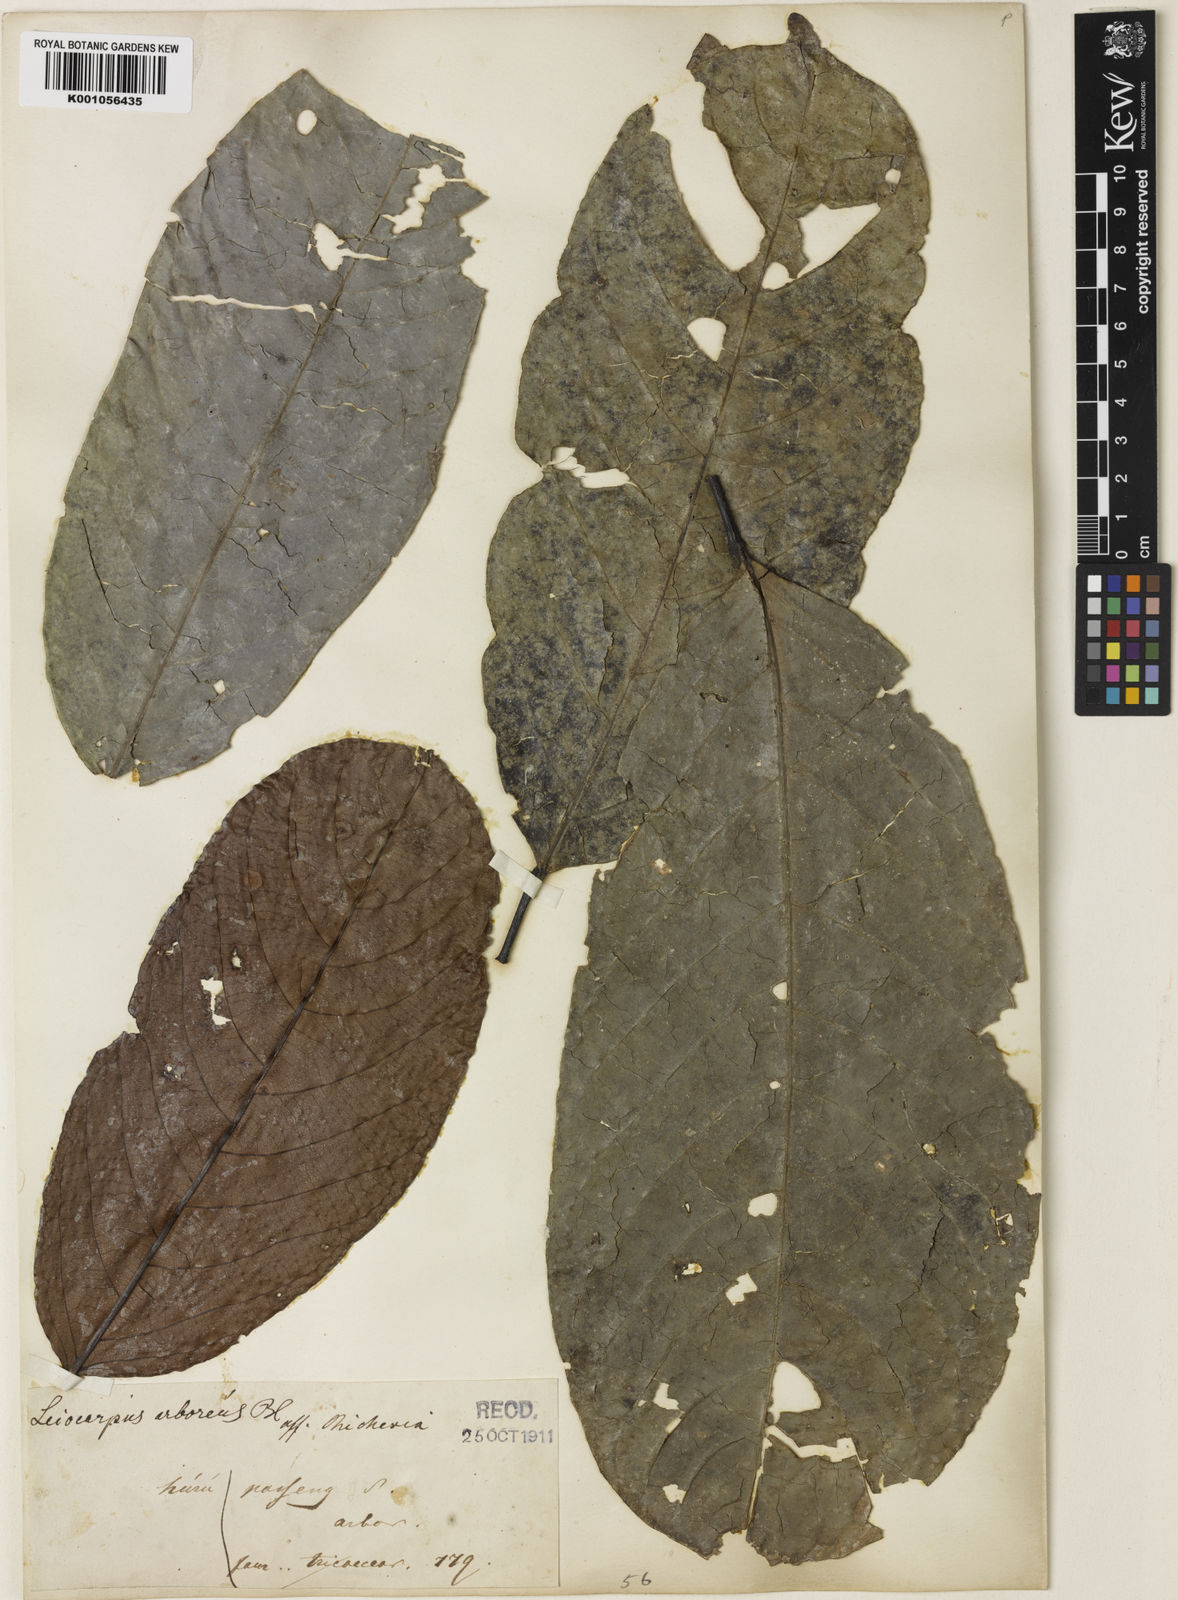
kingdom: Plantae
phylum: Tracheophyta
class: Magnoliopsida
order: Malpighiales
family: Phyllanthaceae
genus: Aporosa
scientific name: Aporosa
